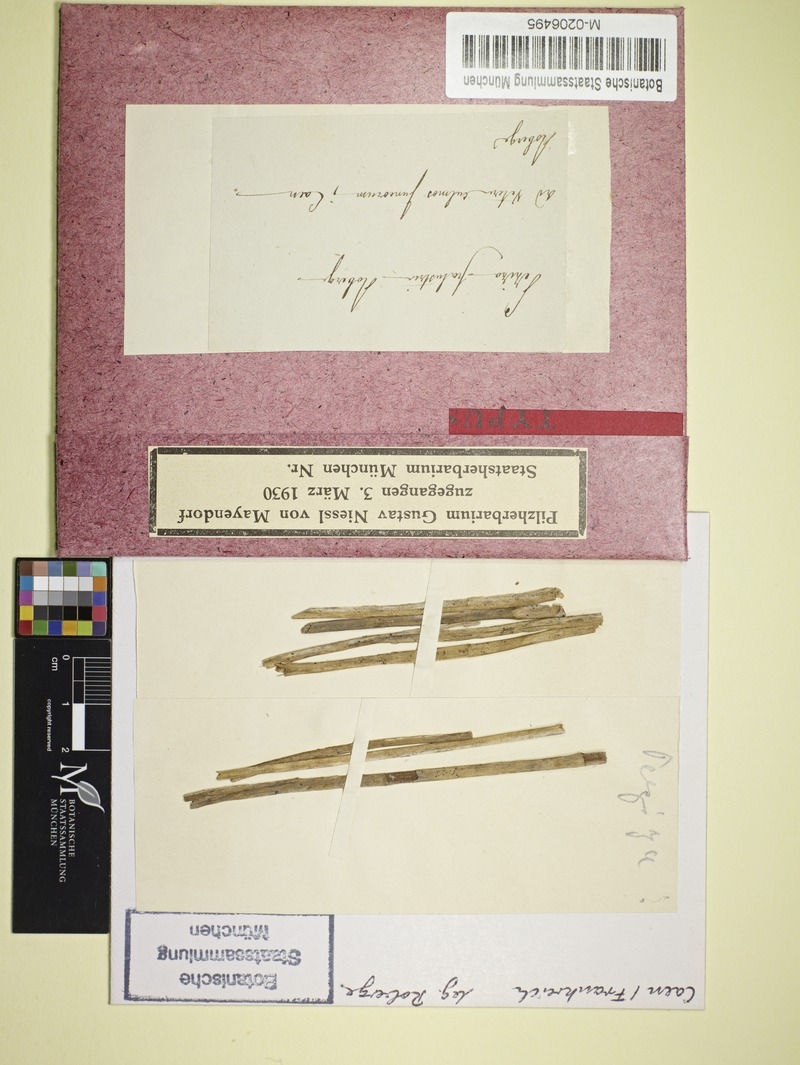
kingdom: Fungi
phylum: Ascomycota
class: Leotiomycetes
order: Helotiales
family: Mollisiaceae
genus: Mollisia
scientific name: Mollisia palustris
